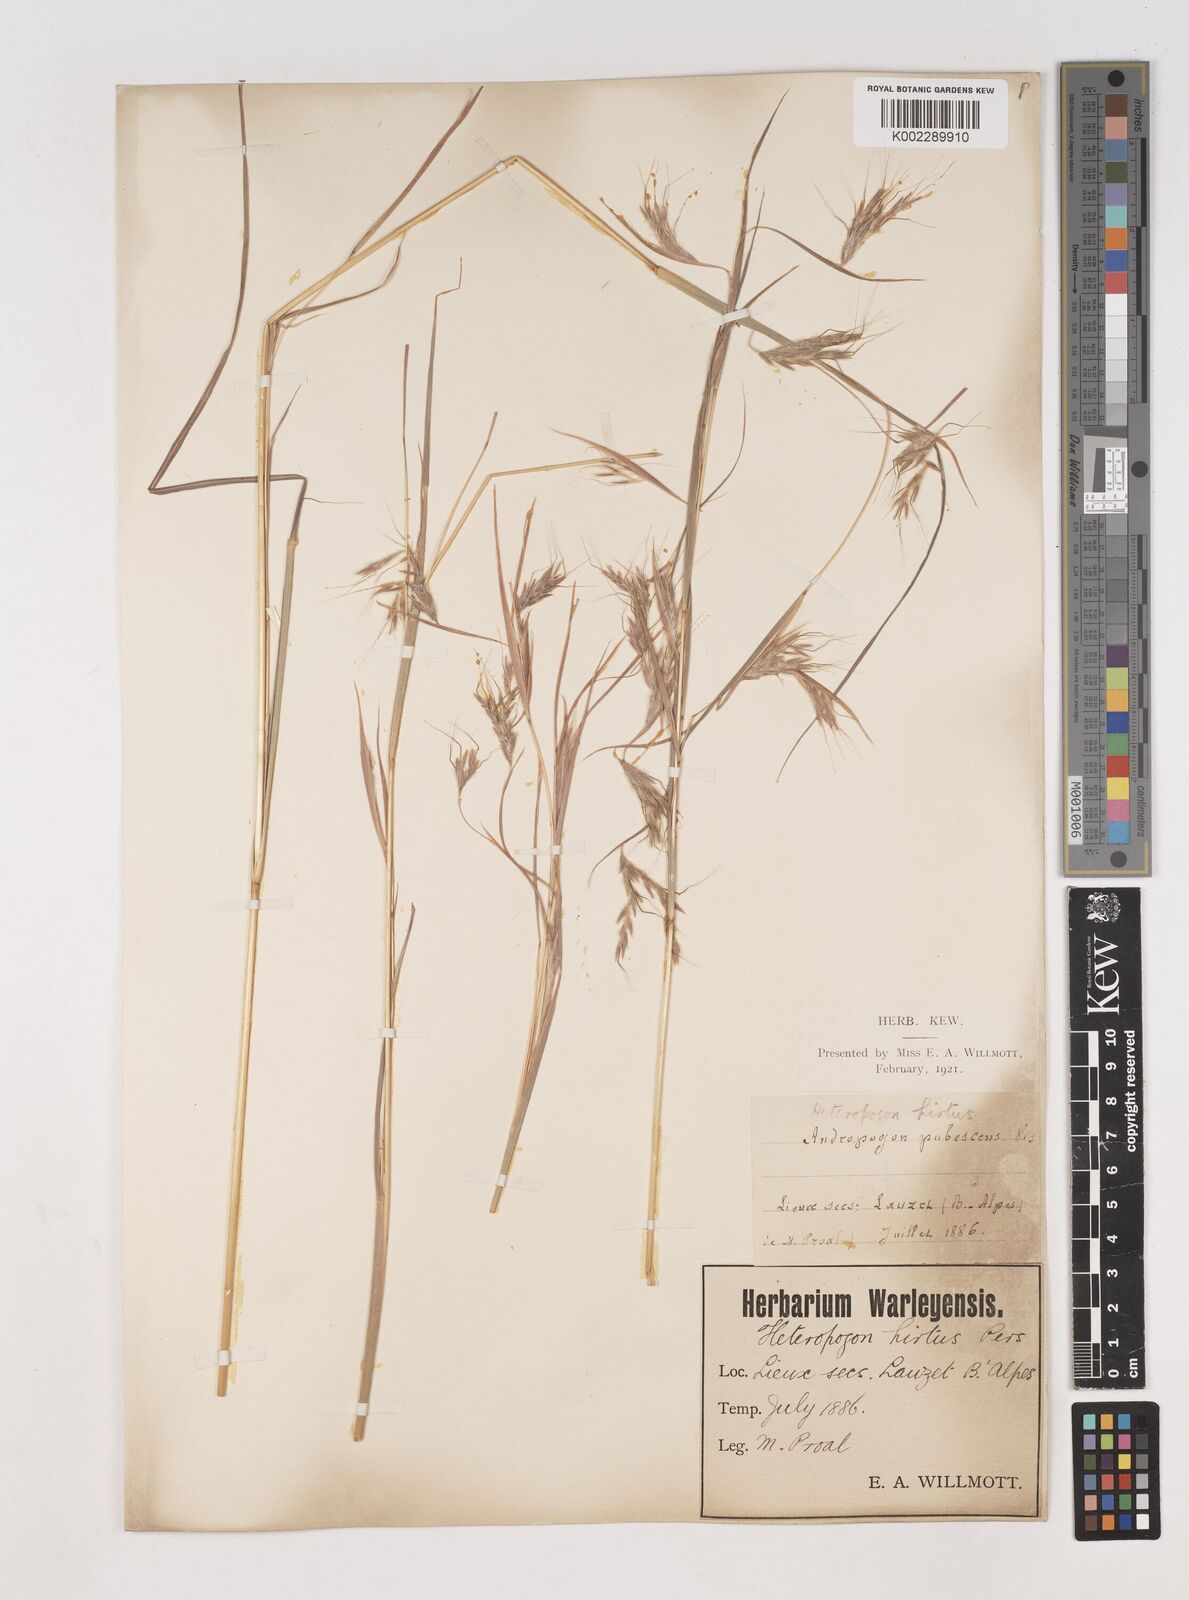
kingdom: Plantae
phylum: Tracheophyta
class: Liliopsida
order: Poales
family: Poaceae
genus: Hyparrhenia
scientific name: Hyparrhenia hirta
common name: Thatching grass
